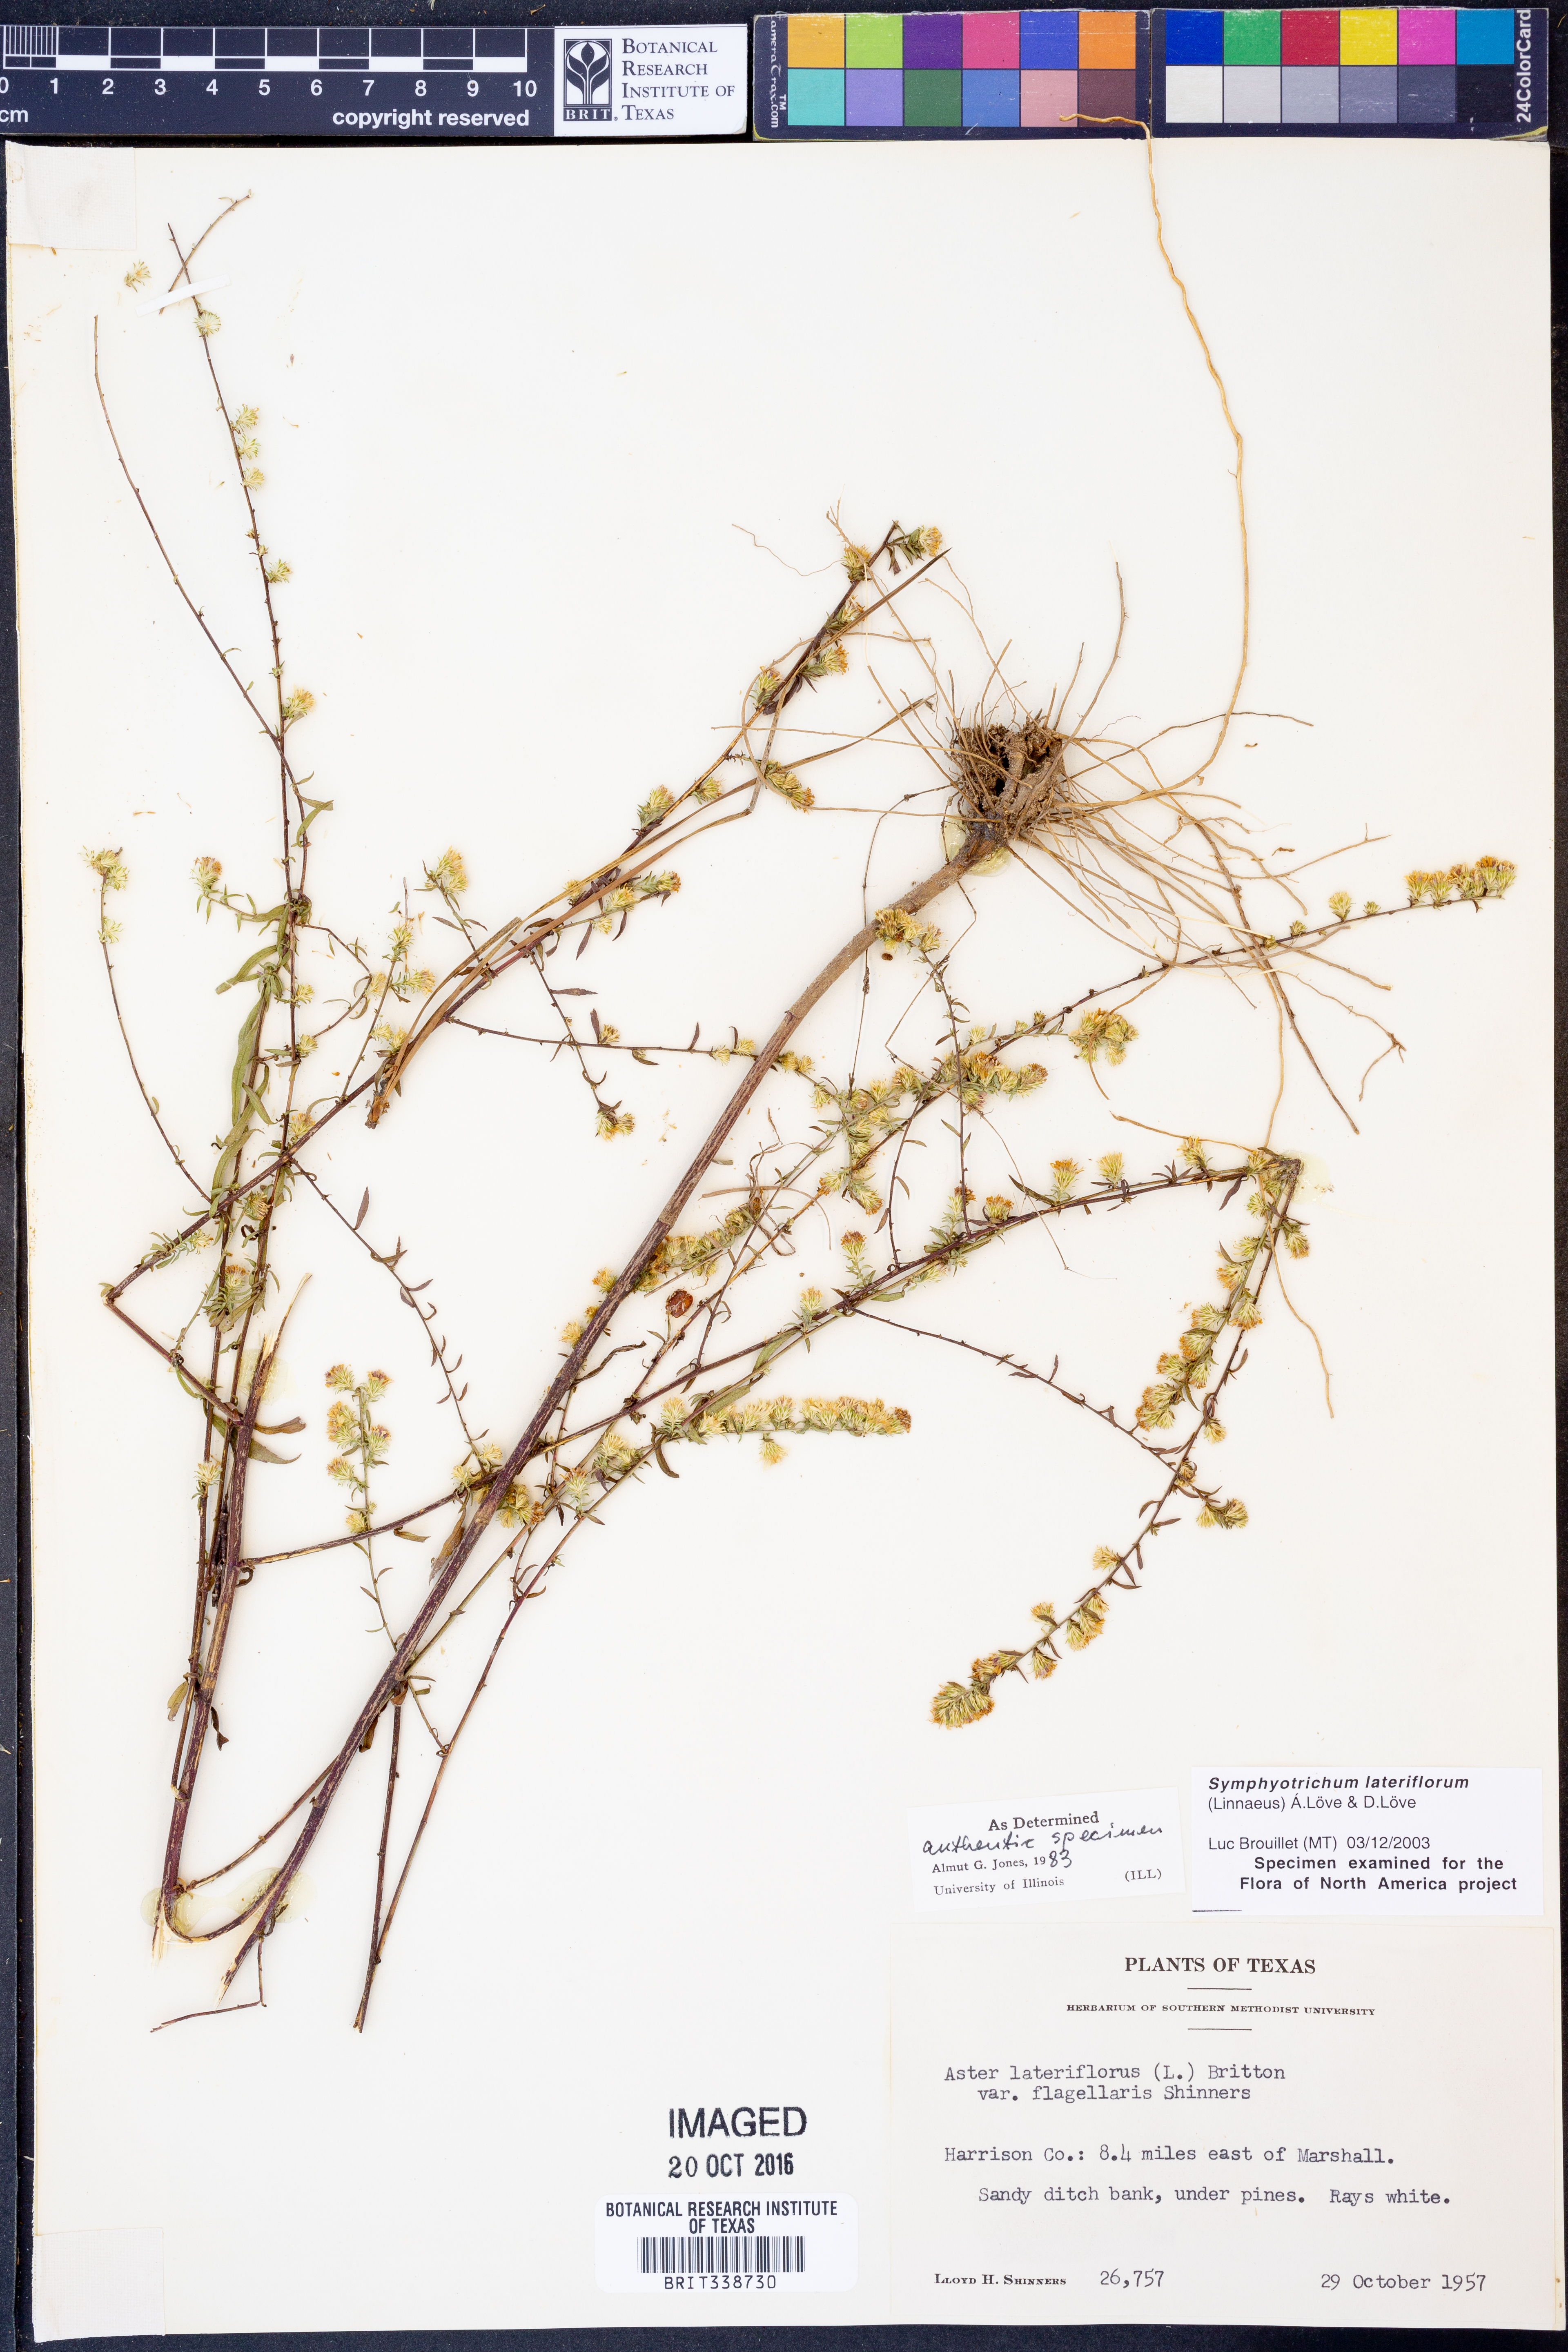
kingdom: Plantae
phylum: Tracheophyta
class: Magnoliopsida
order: Asterales
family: Asteraceae
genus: Symphyotrichum
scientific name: Symphyotrichum lateriflorum
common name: Calico aster
